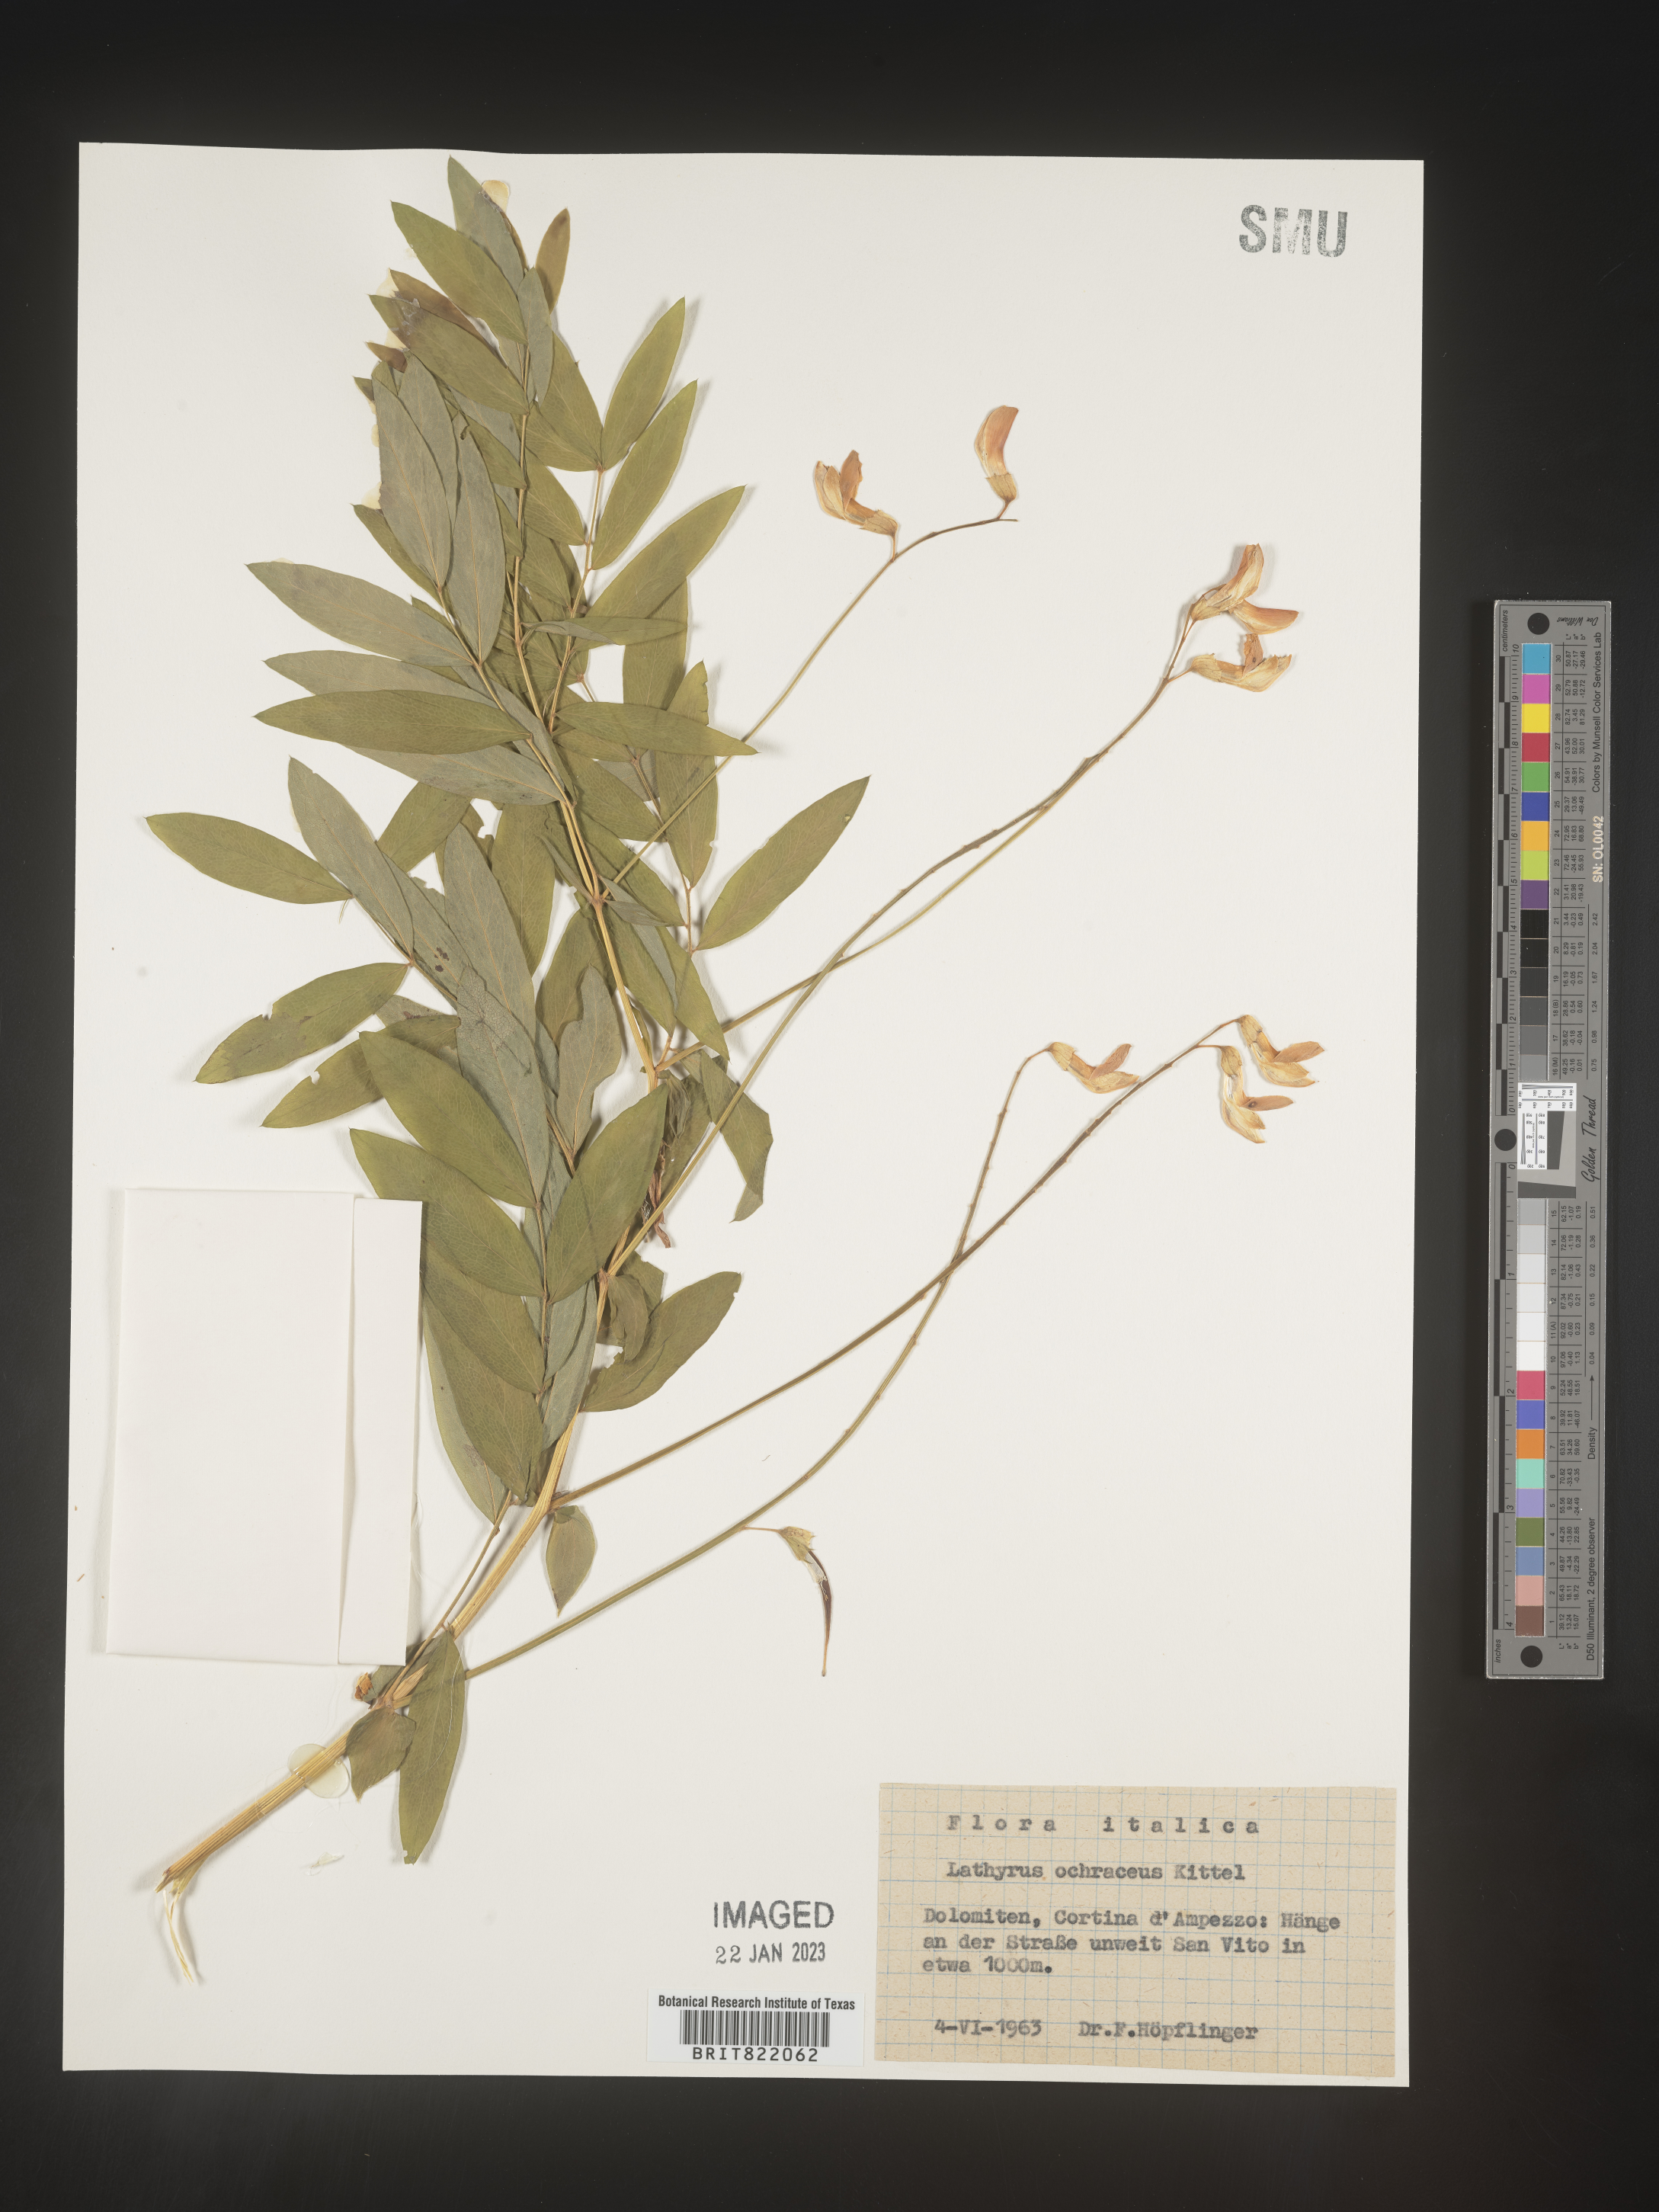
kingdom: Plantae
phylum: Tracheophyta
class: Magnoliopsida
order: Fabales
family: Fabaceae
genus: Lathyrus
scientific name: Lathyrus
